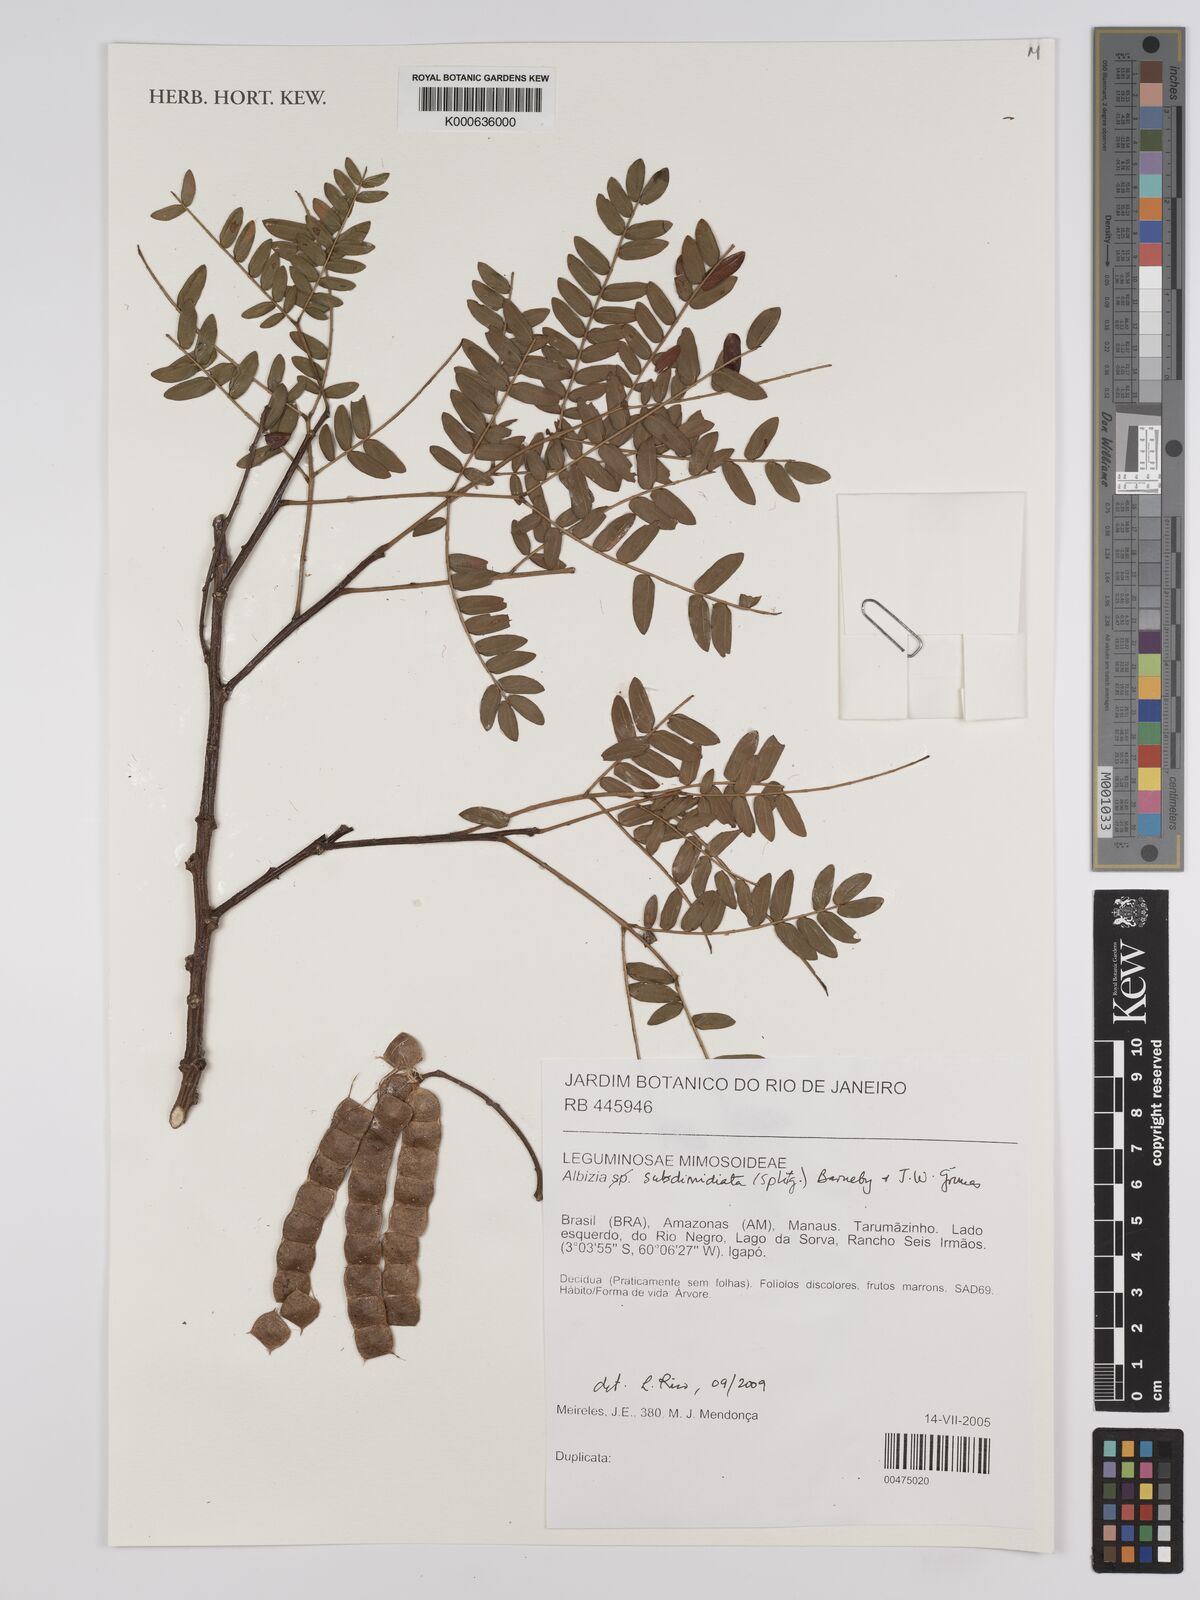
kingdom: Plantae
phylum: Tracheophyta
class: Magnoliopsida
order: Fabales
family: Fabaceae
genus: Albizia
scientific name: Albizia subdimidiata
